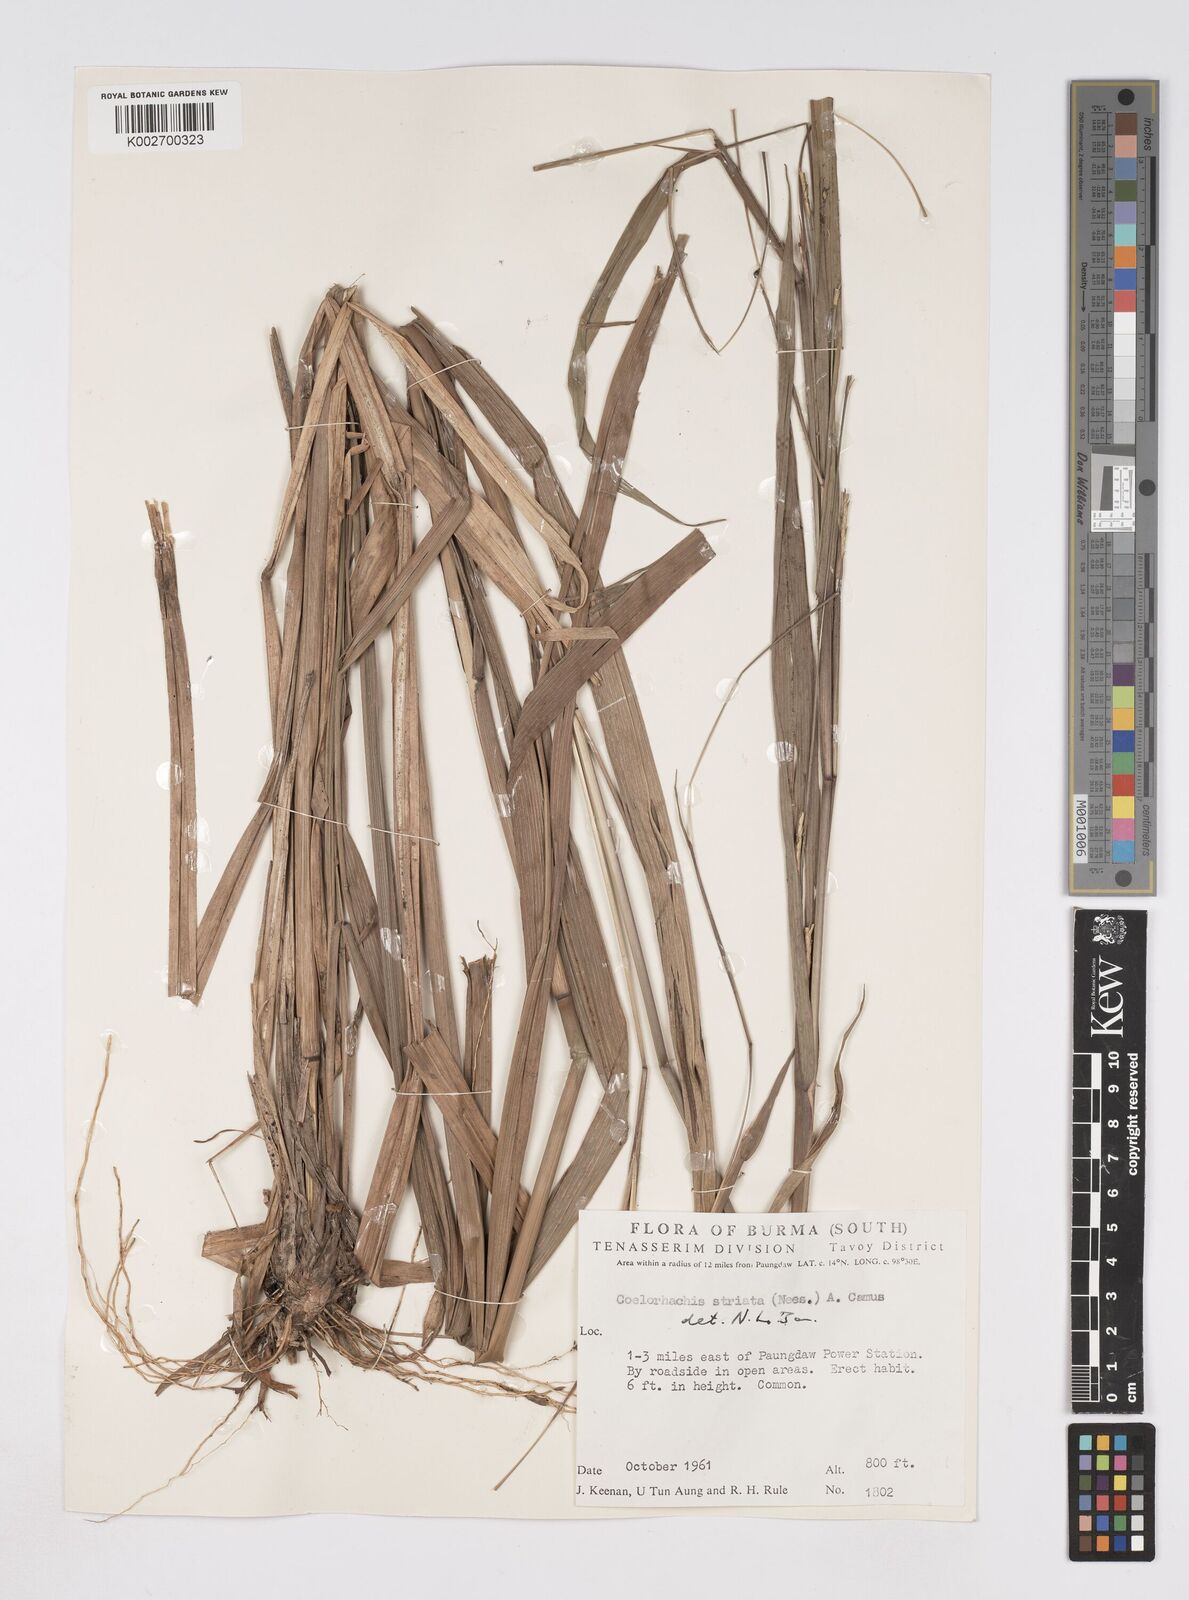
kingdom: Plantae
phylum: Tracheophyta
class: Liliopsida
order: Poales
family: Poaceae
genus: Rottboellia
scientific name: Rottboellia striata
